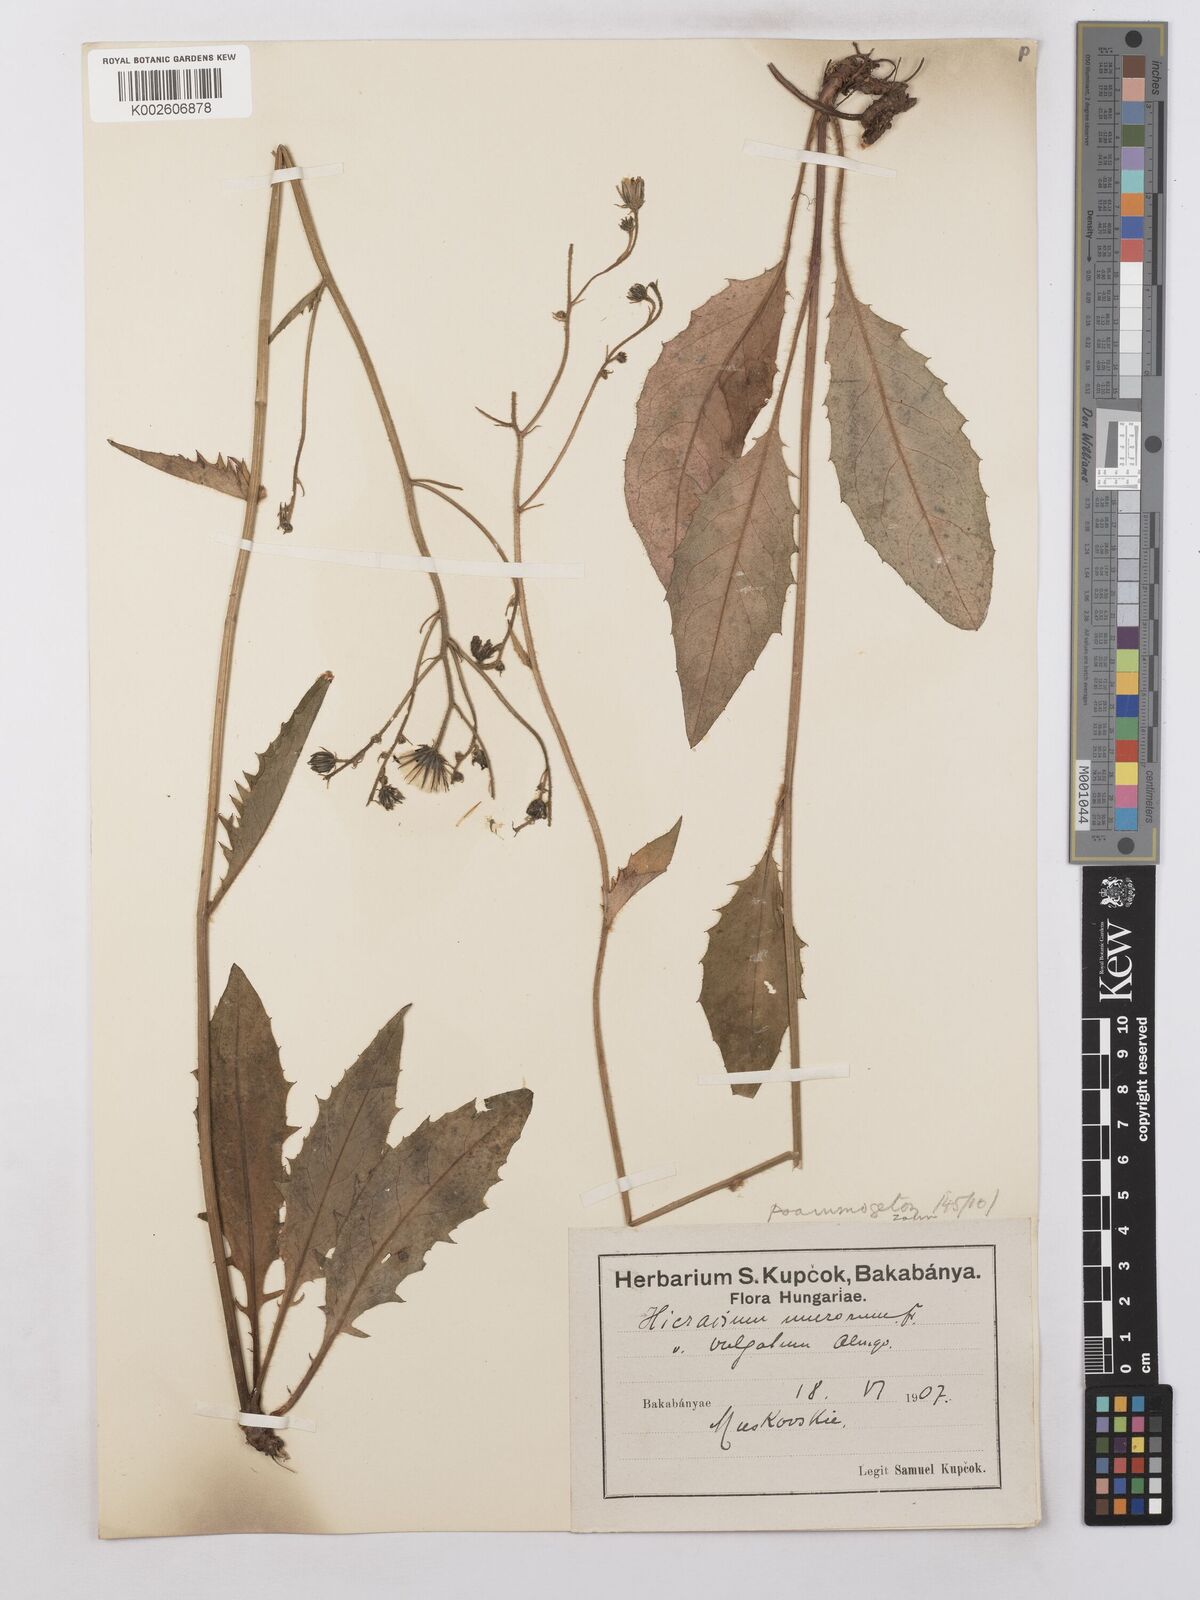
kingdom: Plantae
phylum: Tracheophyta
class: Magnoliopsida
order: Asterales
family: Asteraceae
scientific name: Asteraceae
